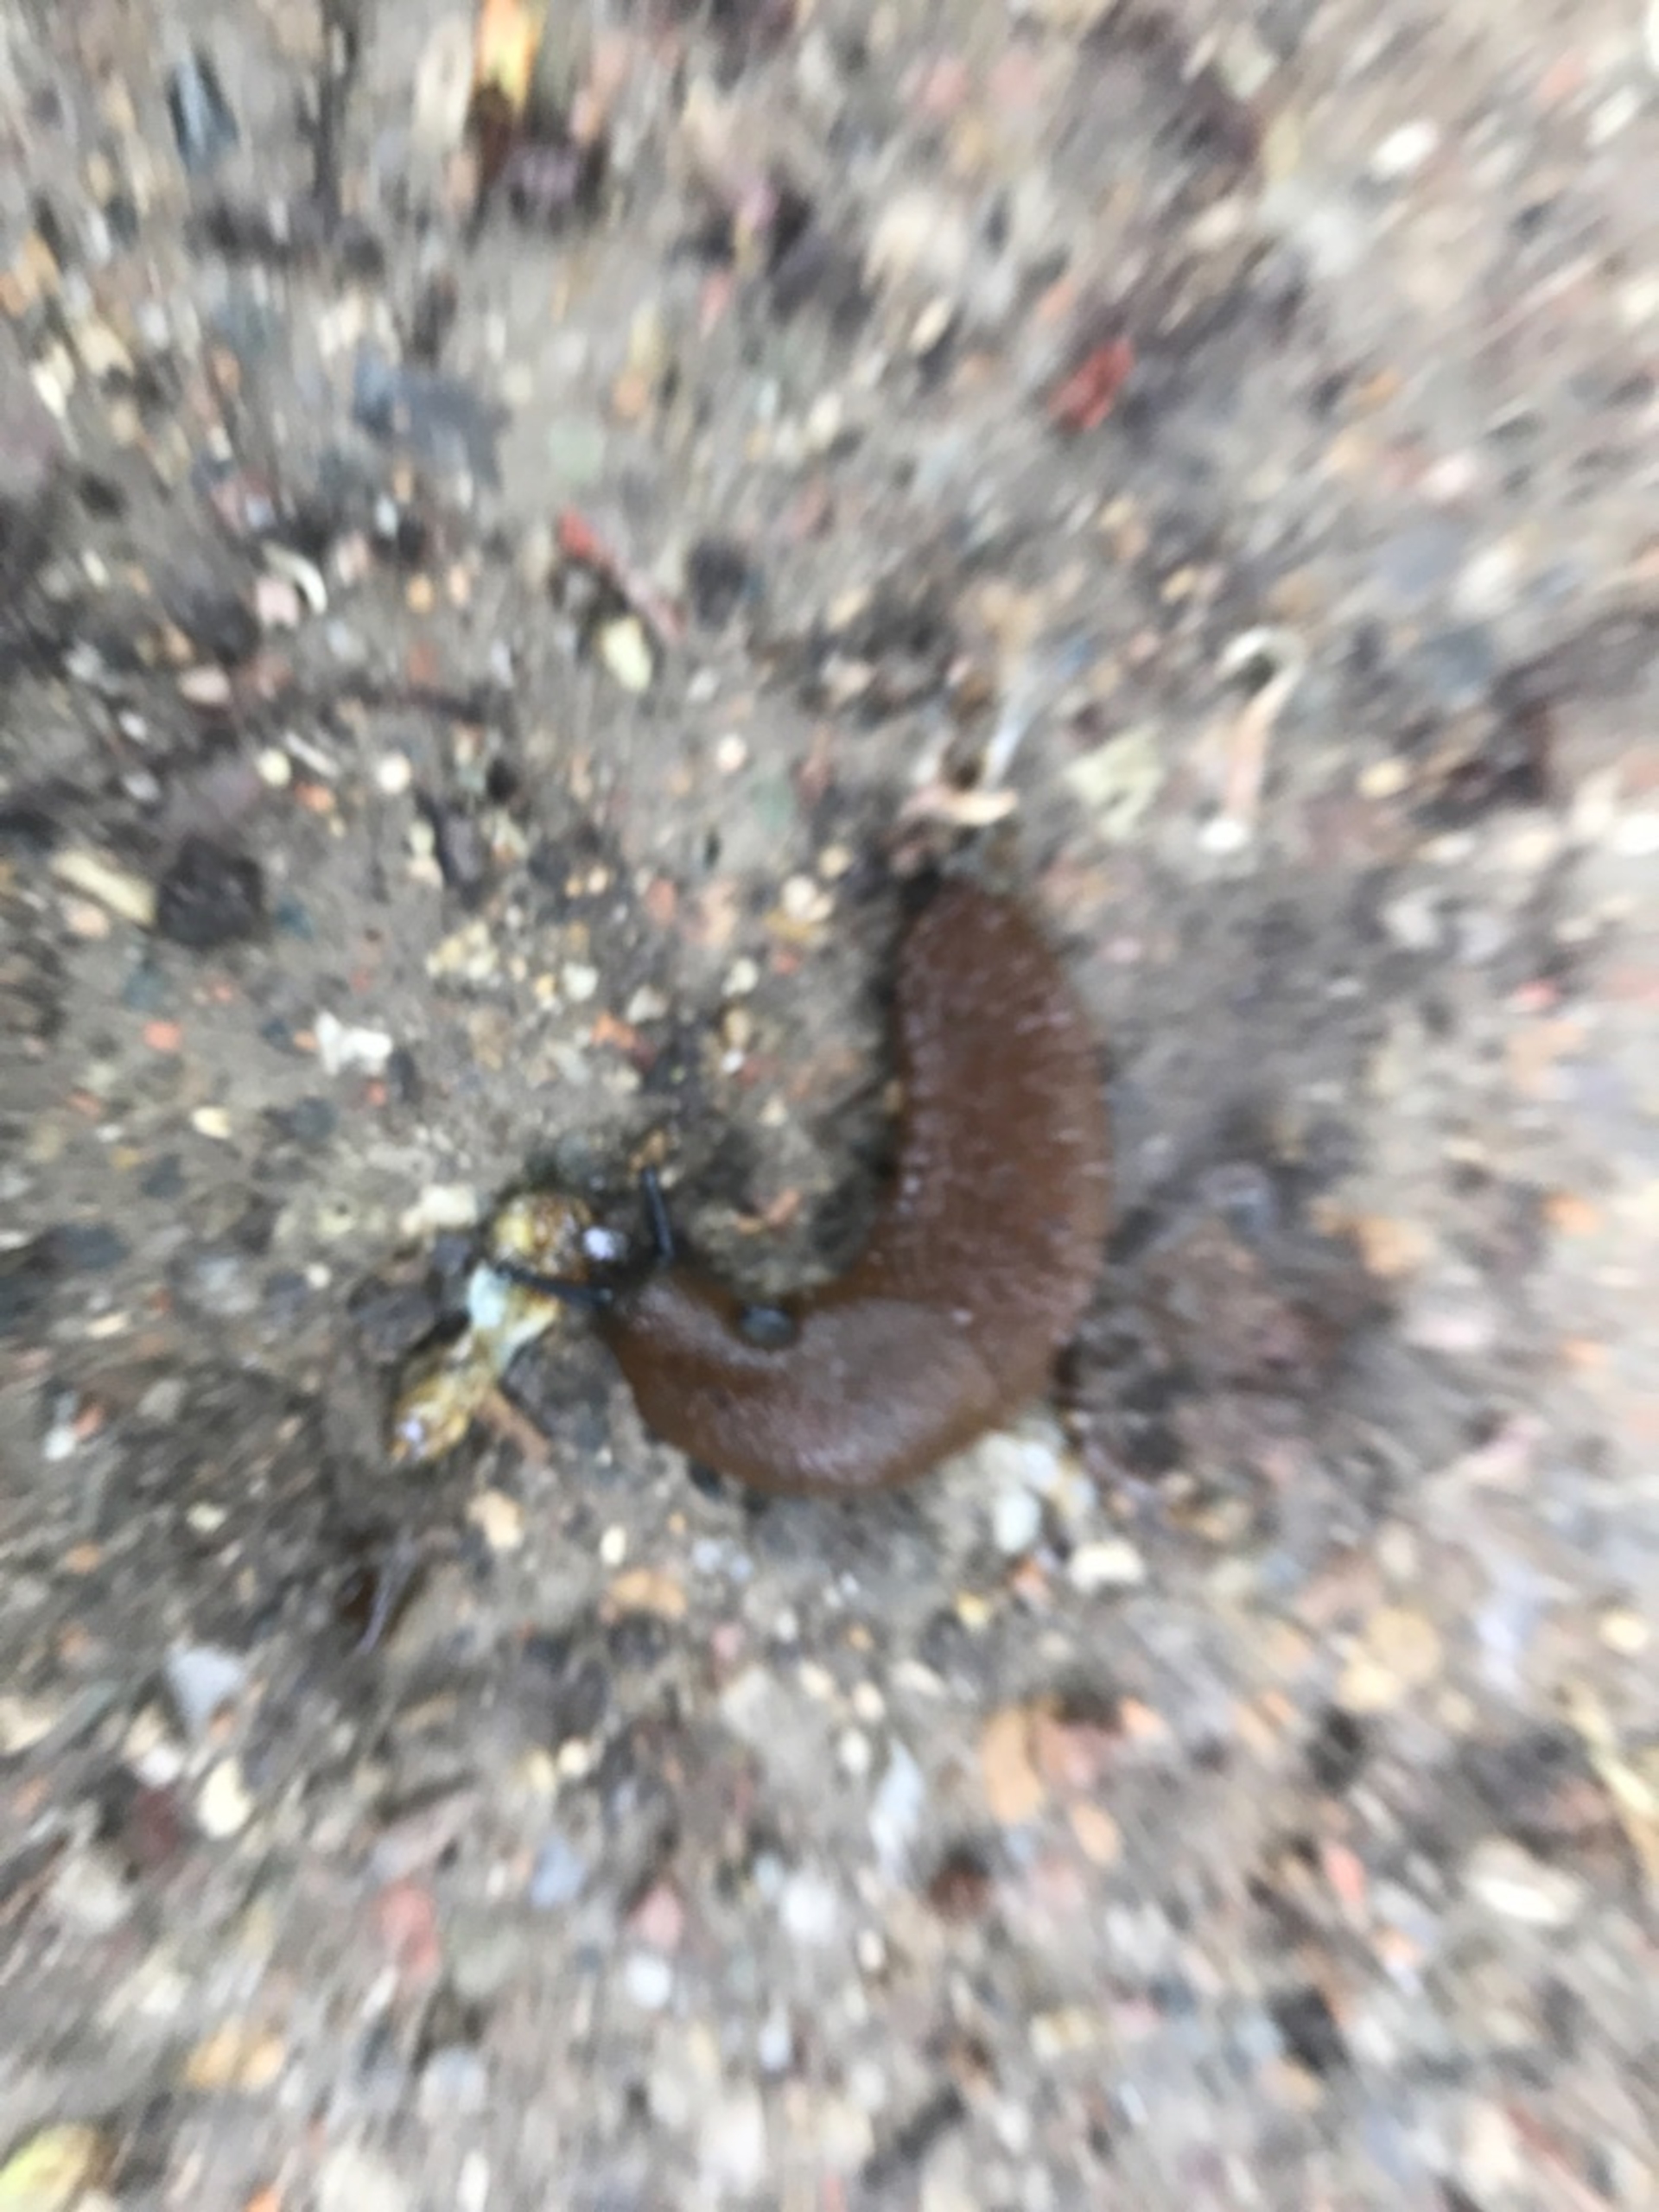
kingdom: Animalia
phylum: Mollusca
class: Gastropoda
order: Stylommatophora
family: Arionidae
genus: Arion
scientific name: Arion vulgaris
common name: Iberisk skovsnegl
